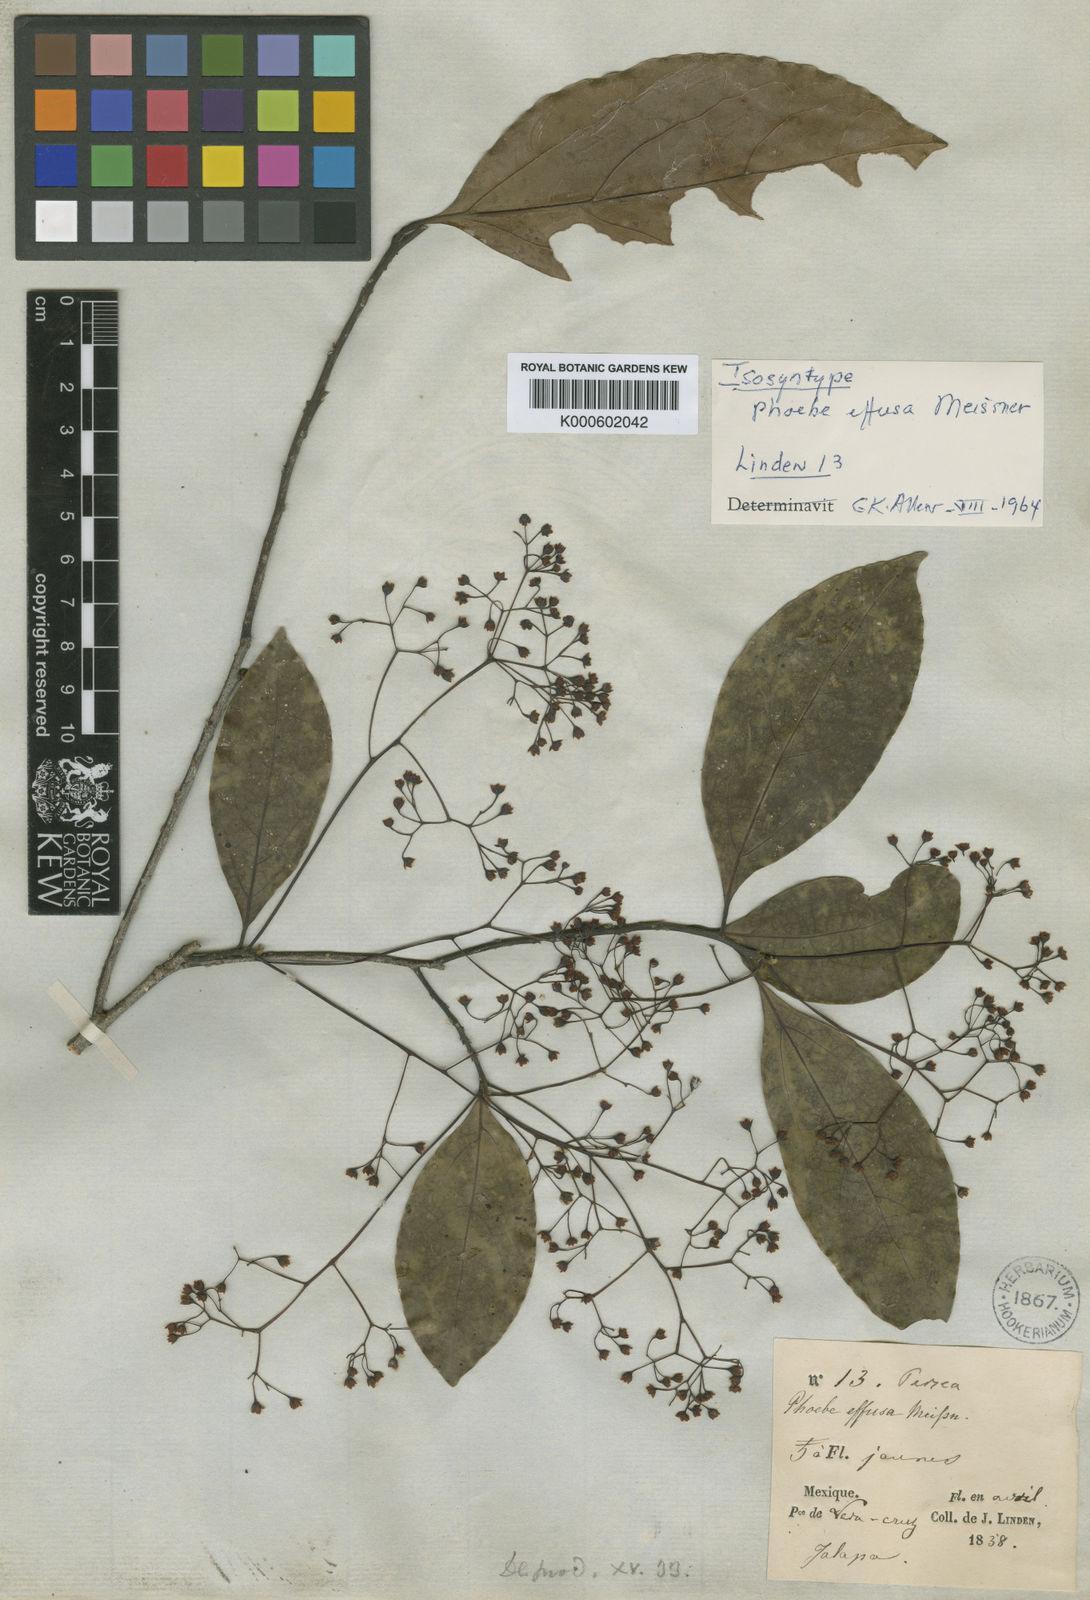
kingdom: Plantae
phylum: Tracheophyta
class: Magnoliopsida
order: Laurales
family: Lauraceae
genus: Ocotea
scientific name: Ocotea effusa
